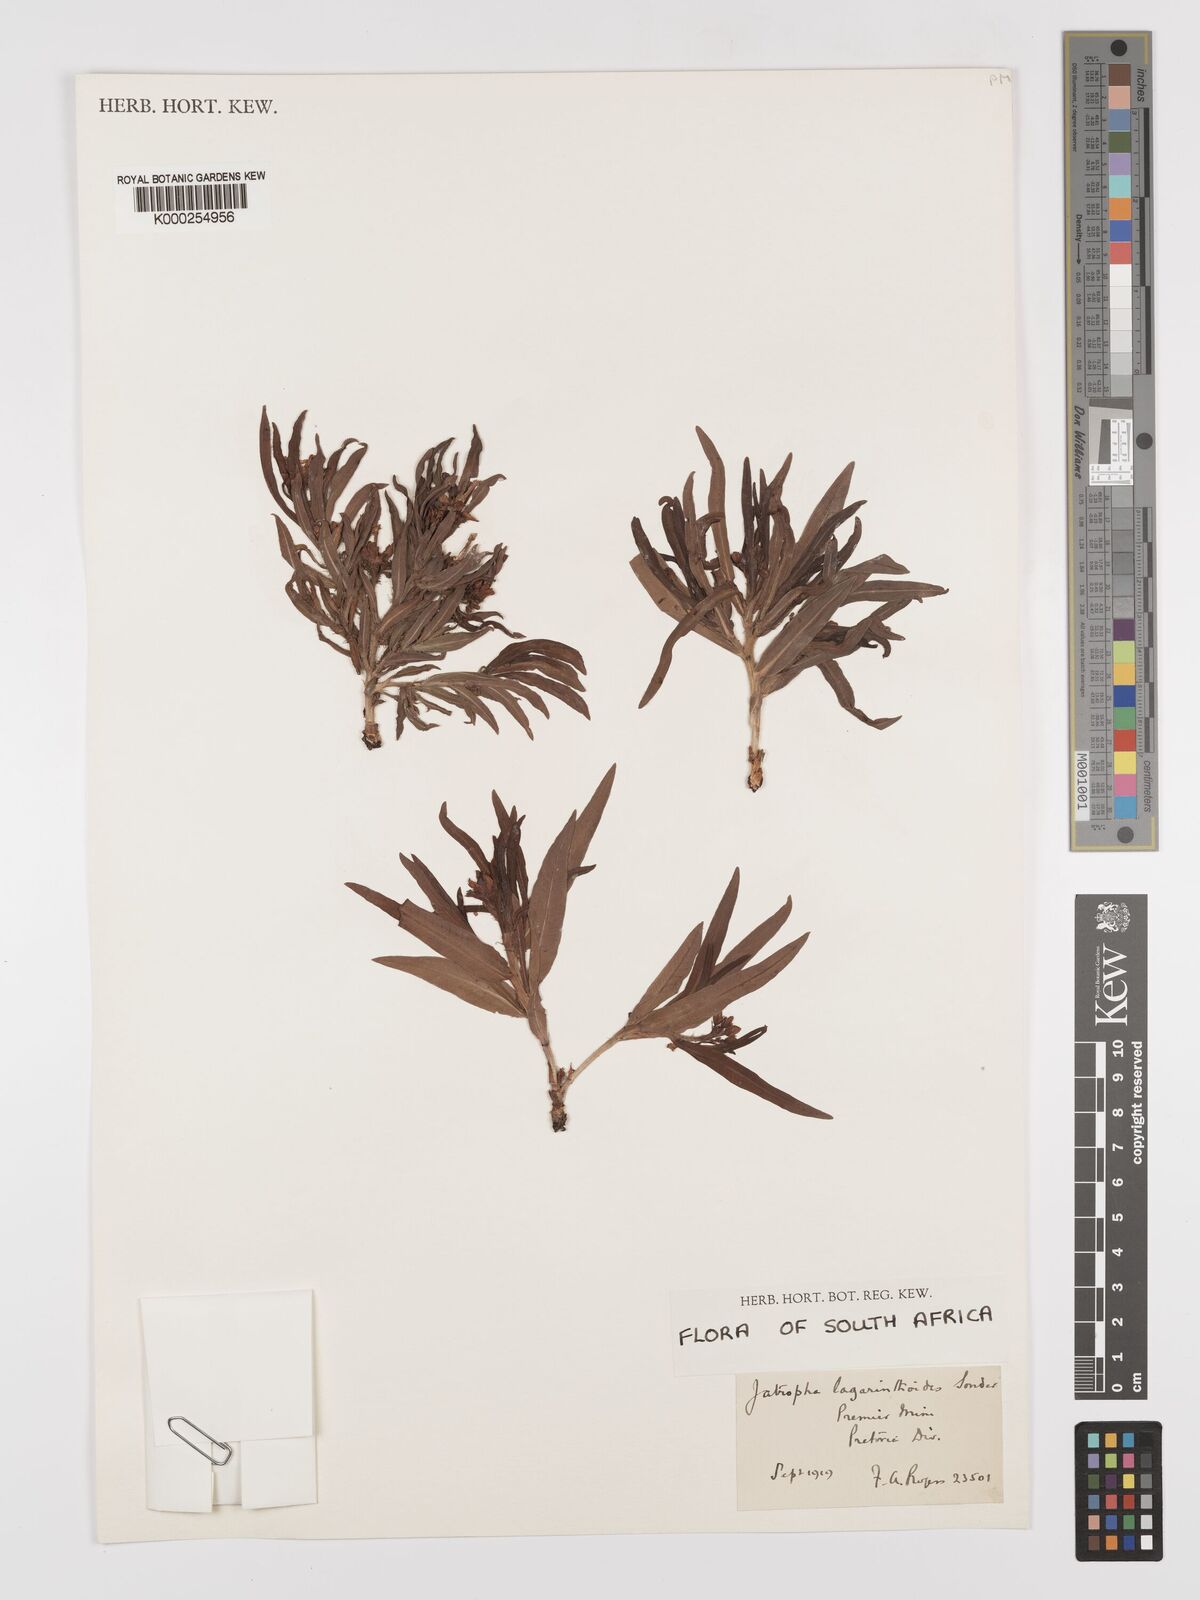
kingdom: Plantae
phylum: Tracheophyta
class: Magnoliopsida
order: Malpighiales
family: Euphorbiaceae
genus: Jatropha
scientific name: Jatropha lagarinthoides
